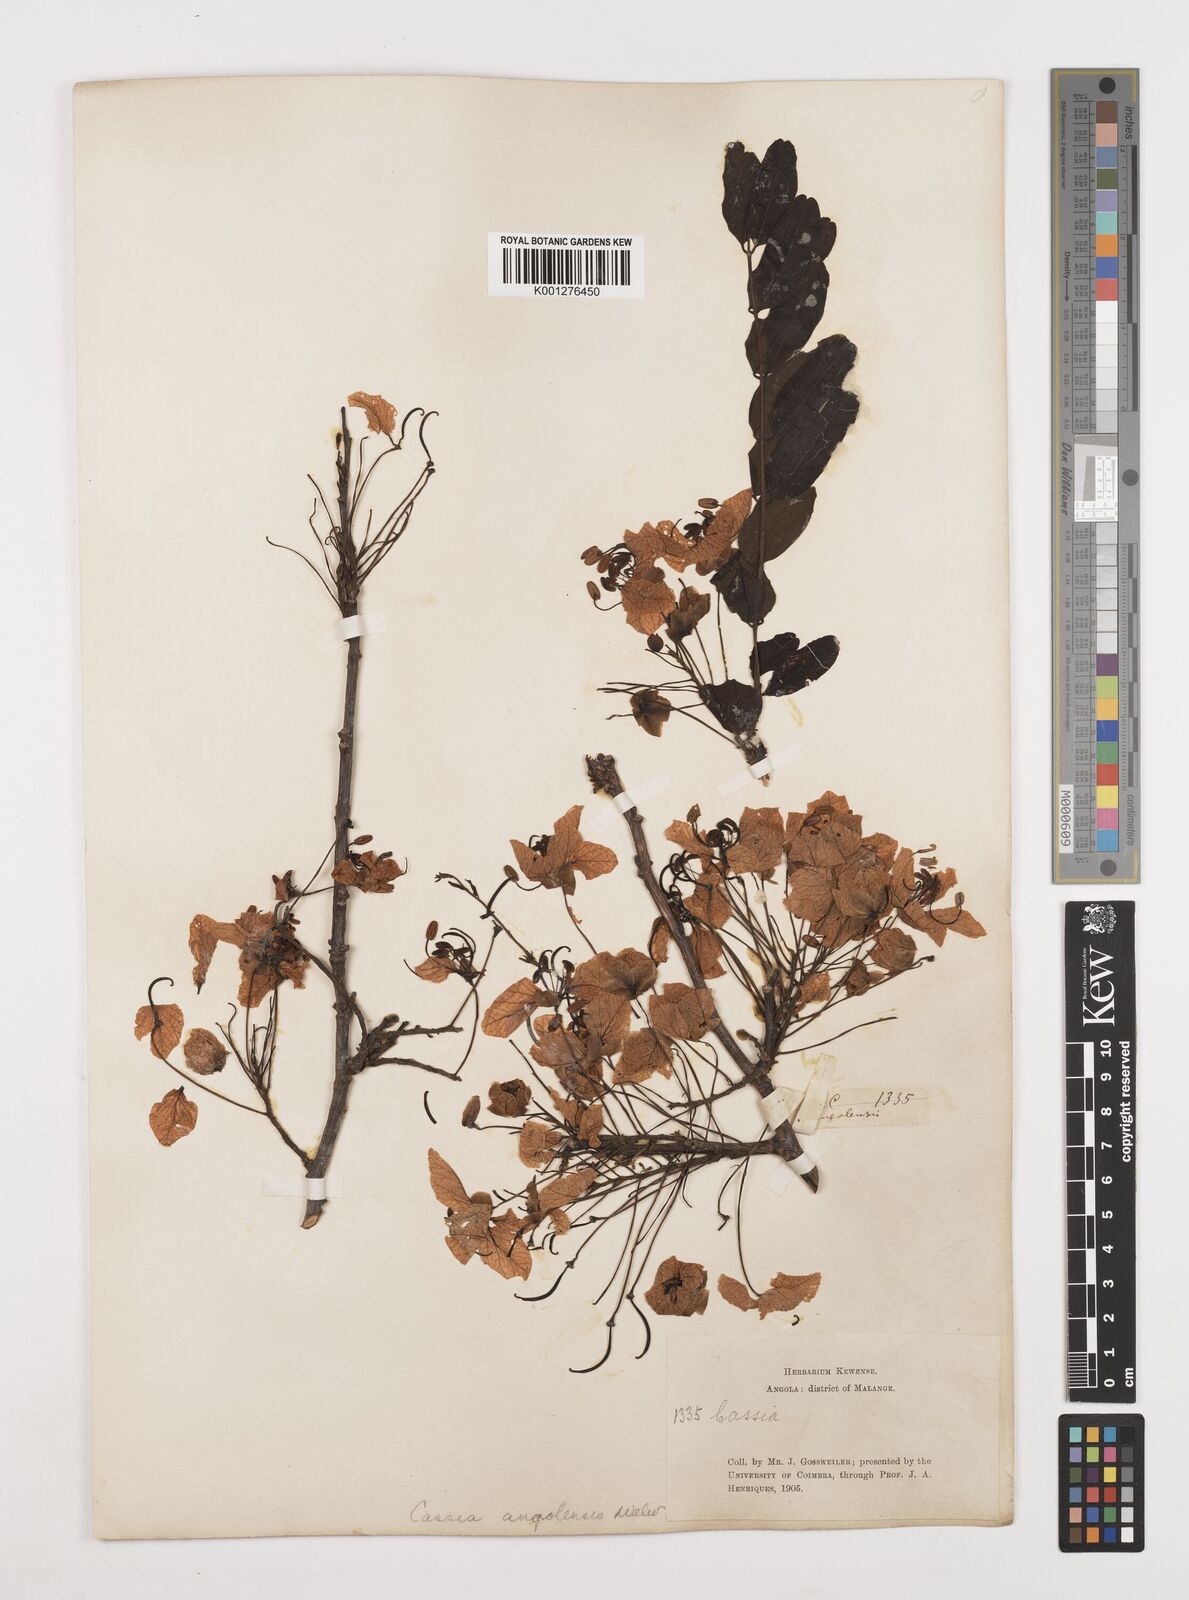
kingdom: Plantae
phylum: Tracheophyta
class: Magnoliopsida
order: Fabales
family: Fabaceae
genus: Cassia
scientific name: Cassia angolensis
